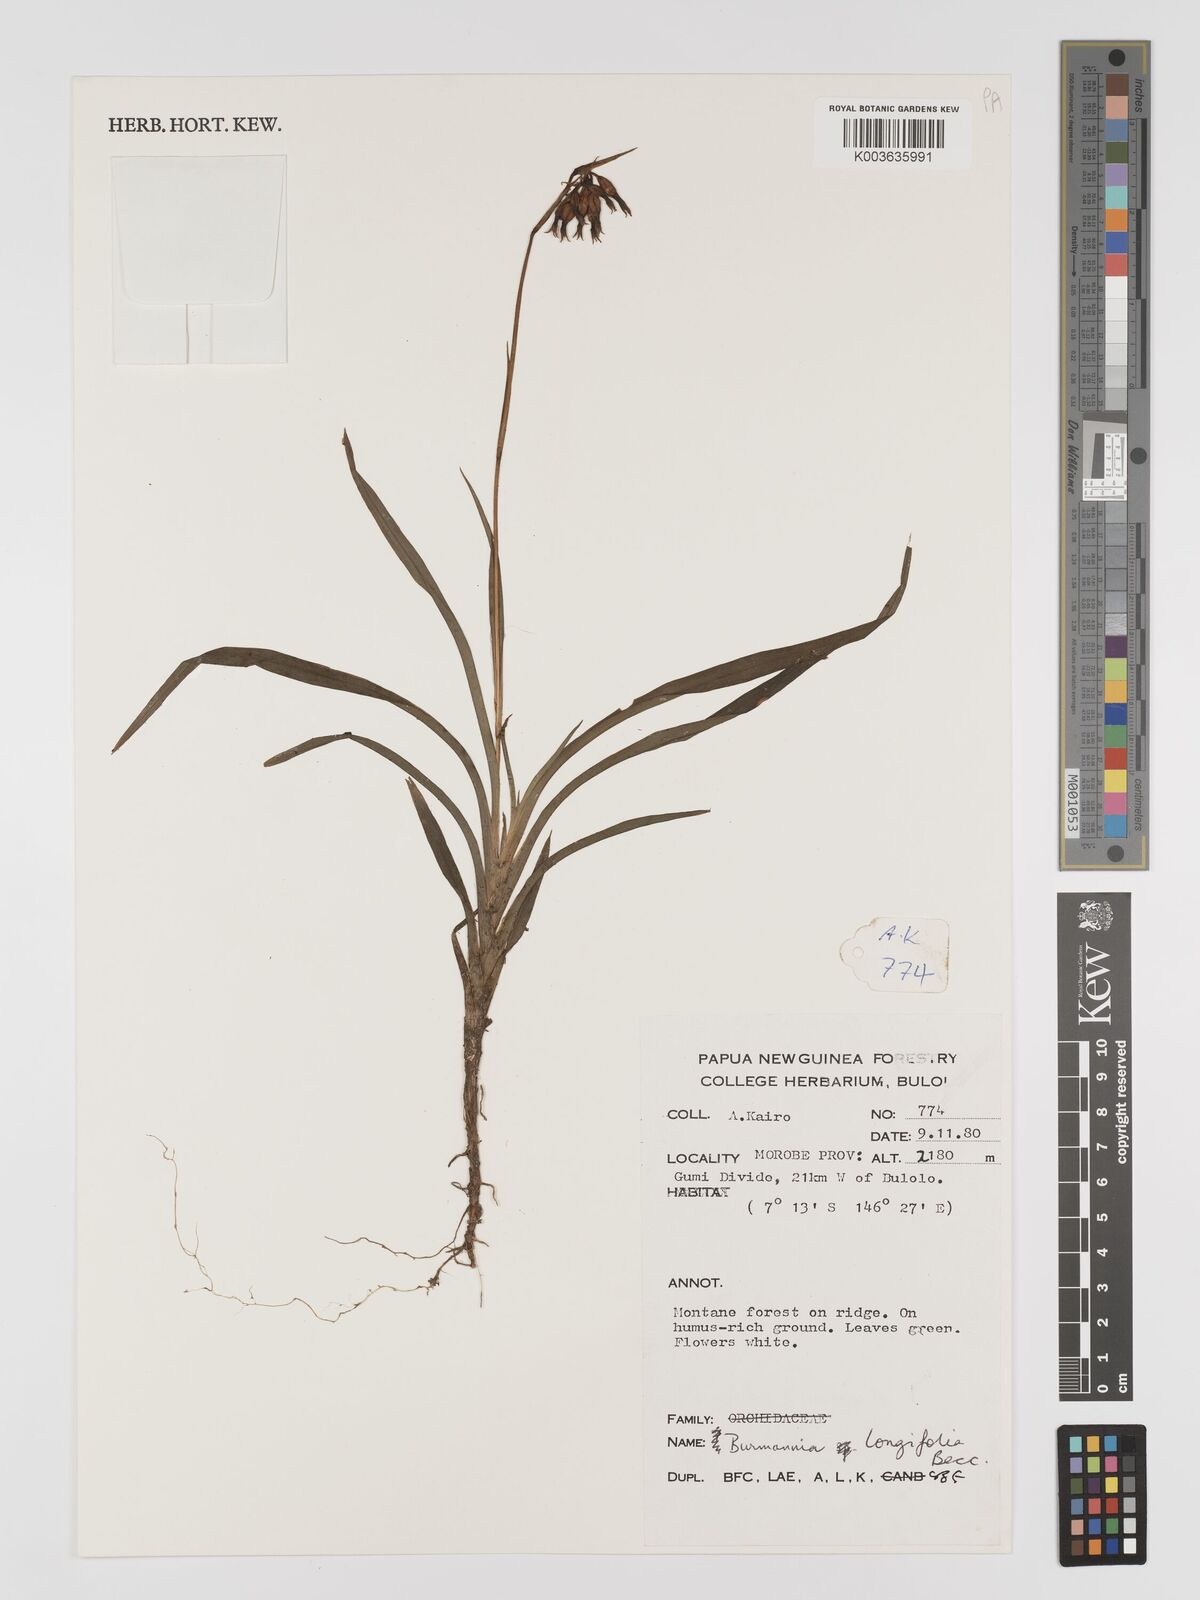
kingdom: Plantae
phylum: Tracheophyta
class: Liliopsida
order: Dioscoreales
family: Burmanniaceae
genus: Burmannia
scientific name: Burmannia longifolia
